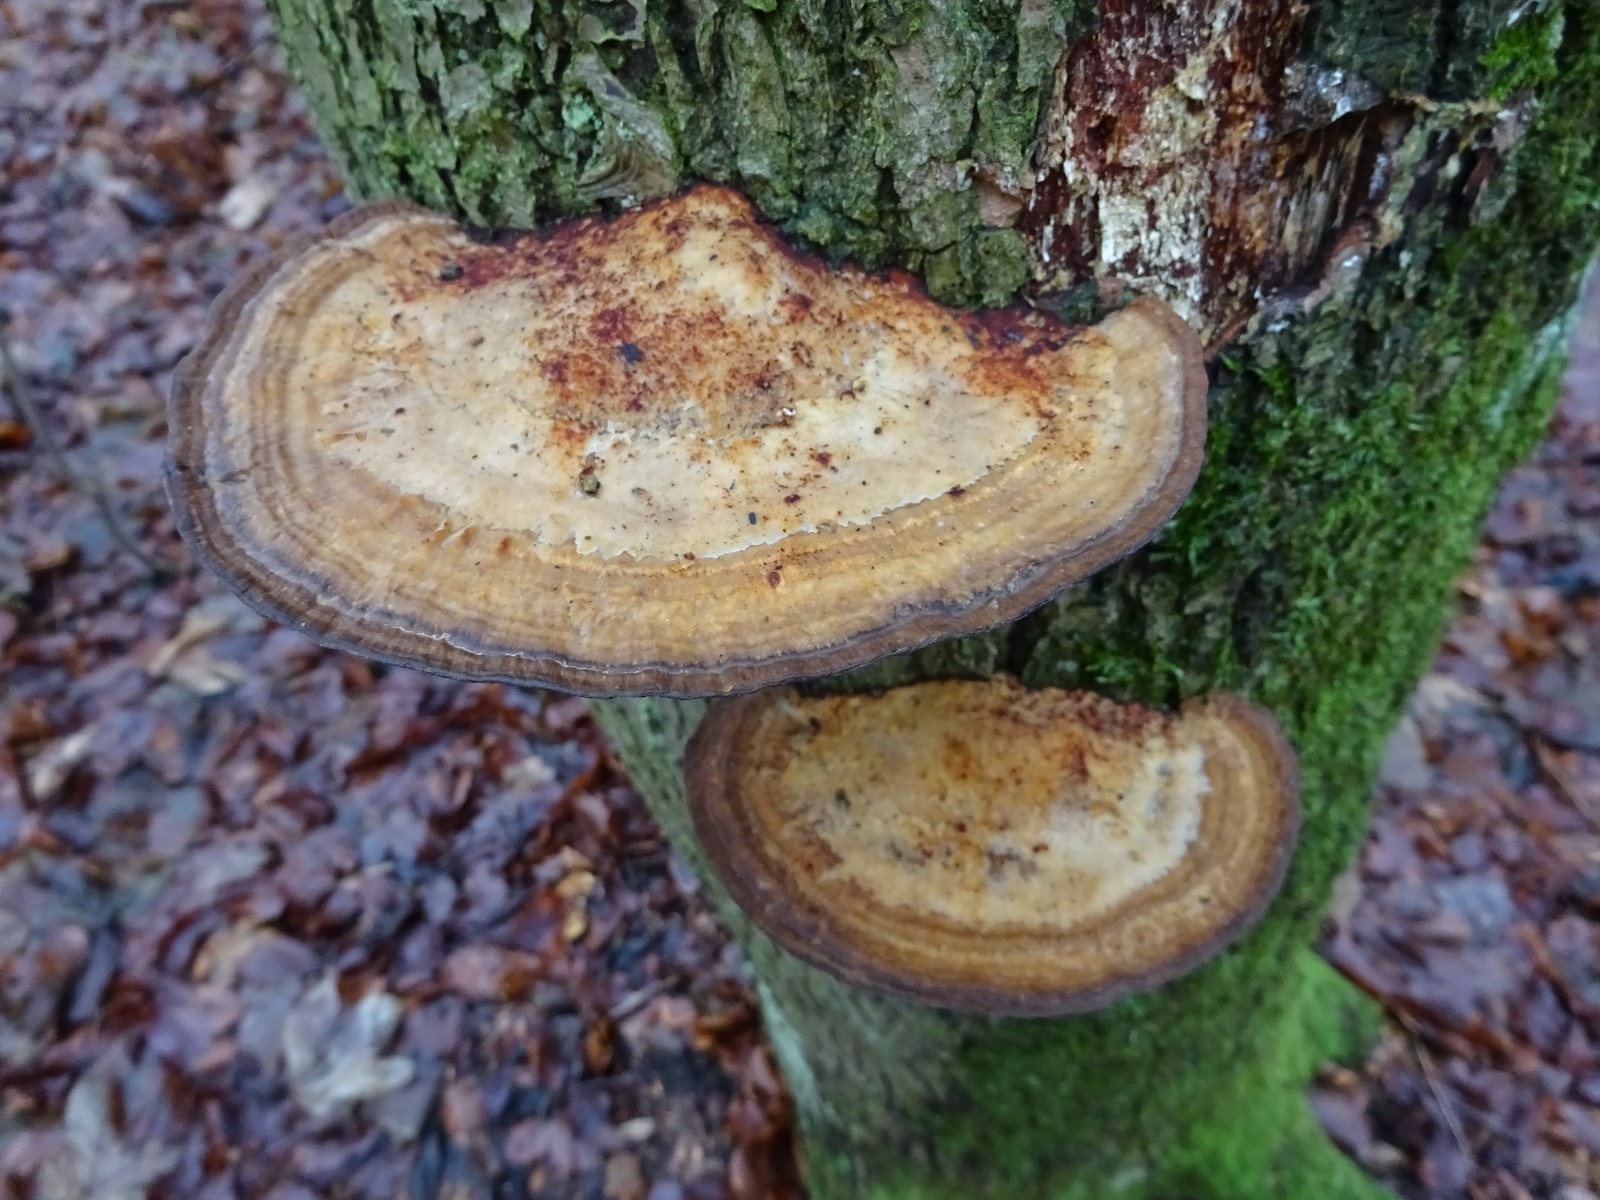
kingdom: Fungi
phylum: Basidiomycota
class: Agaricomycetes
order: Polyporales
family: Polyporaceae
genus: Daedaleopsis
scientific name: Daedaleopsis confragosa
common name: rødmende læderporesvamp
